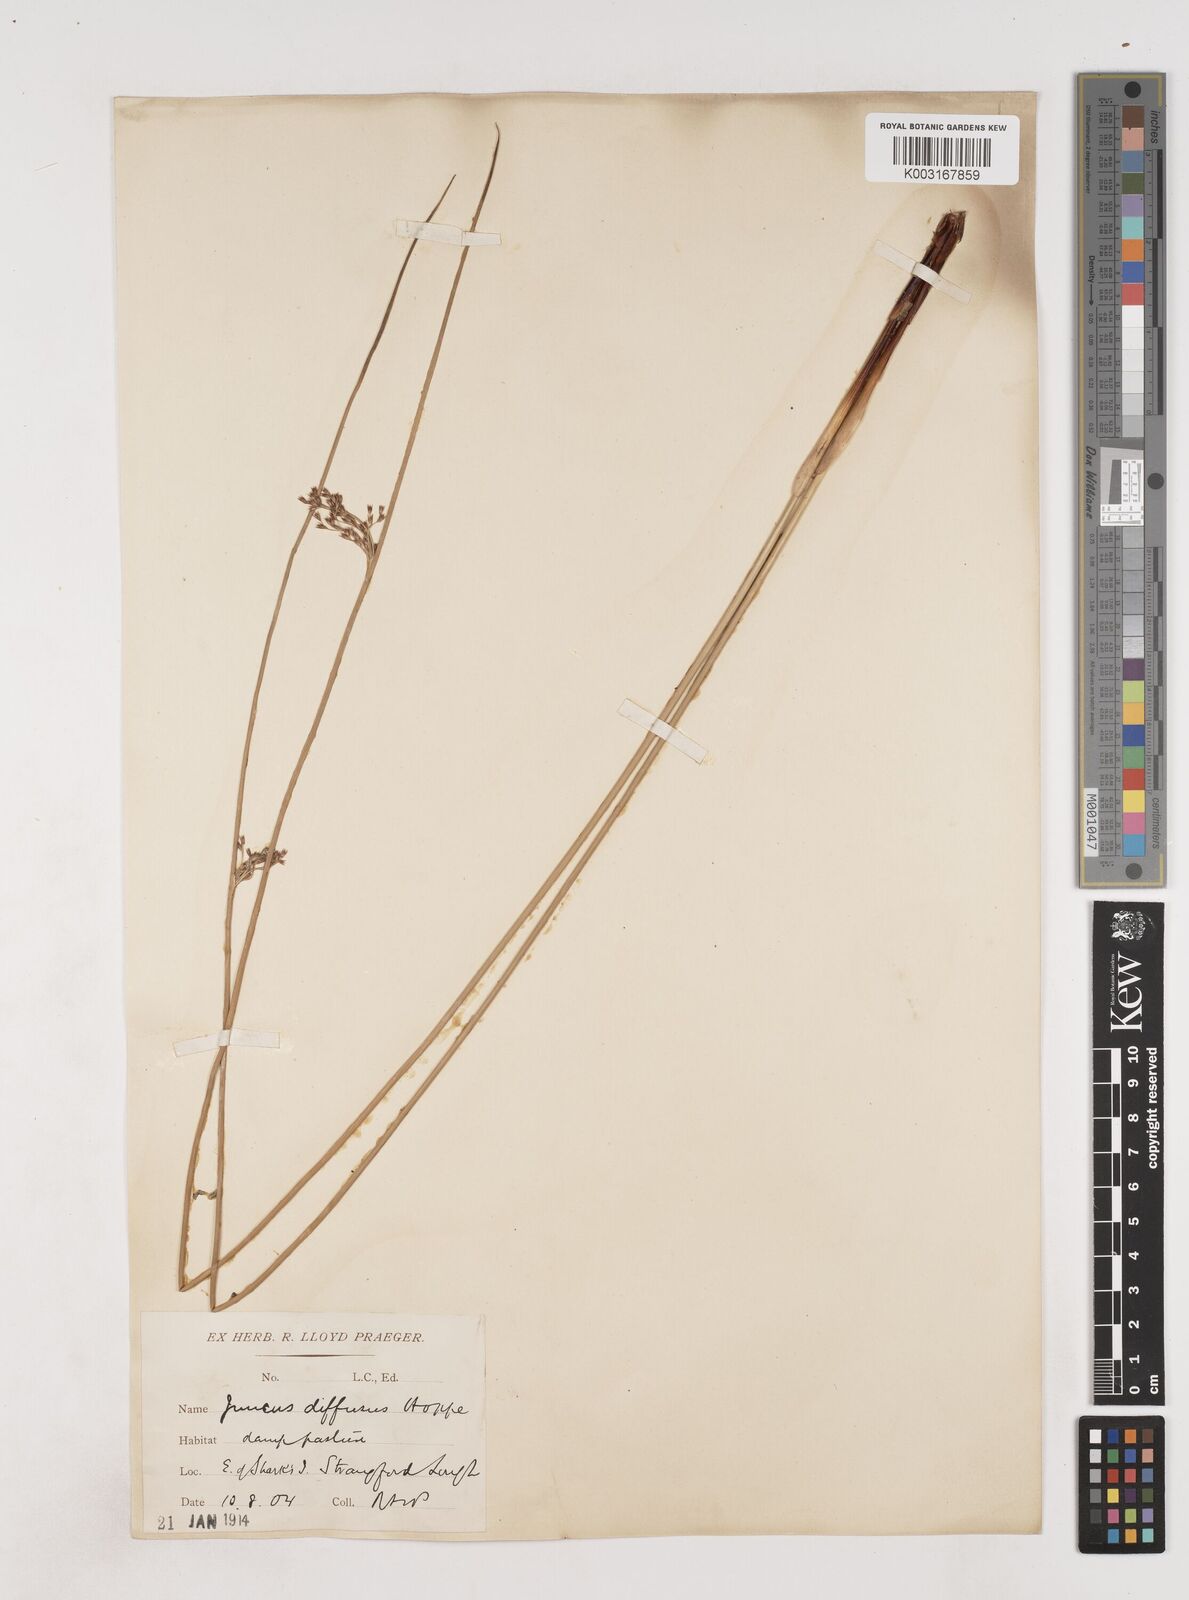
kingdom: Plantae
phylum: Tracheophyta
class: Liliopsida
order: Poales
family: Juncaceae
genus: Juncus
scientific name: Juncus effusus
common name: Soft rush
